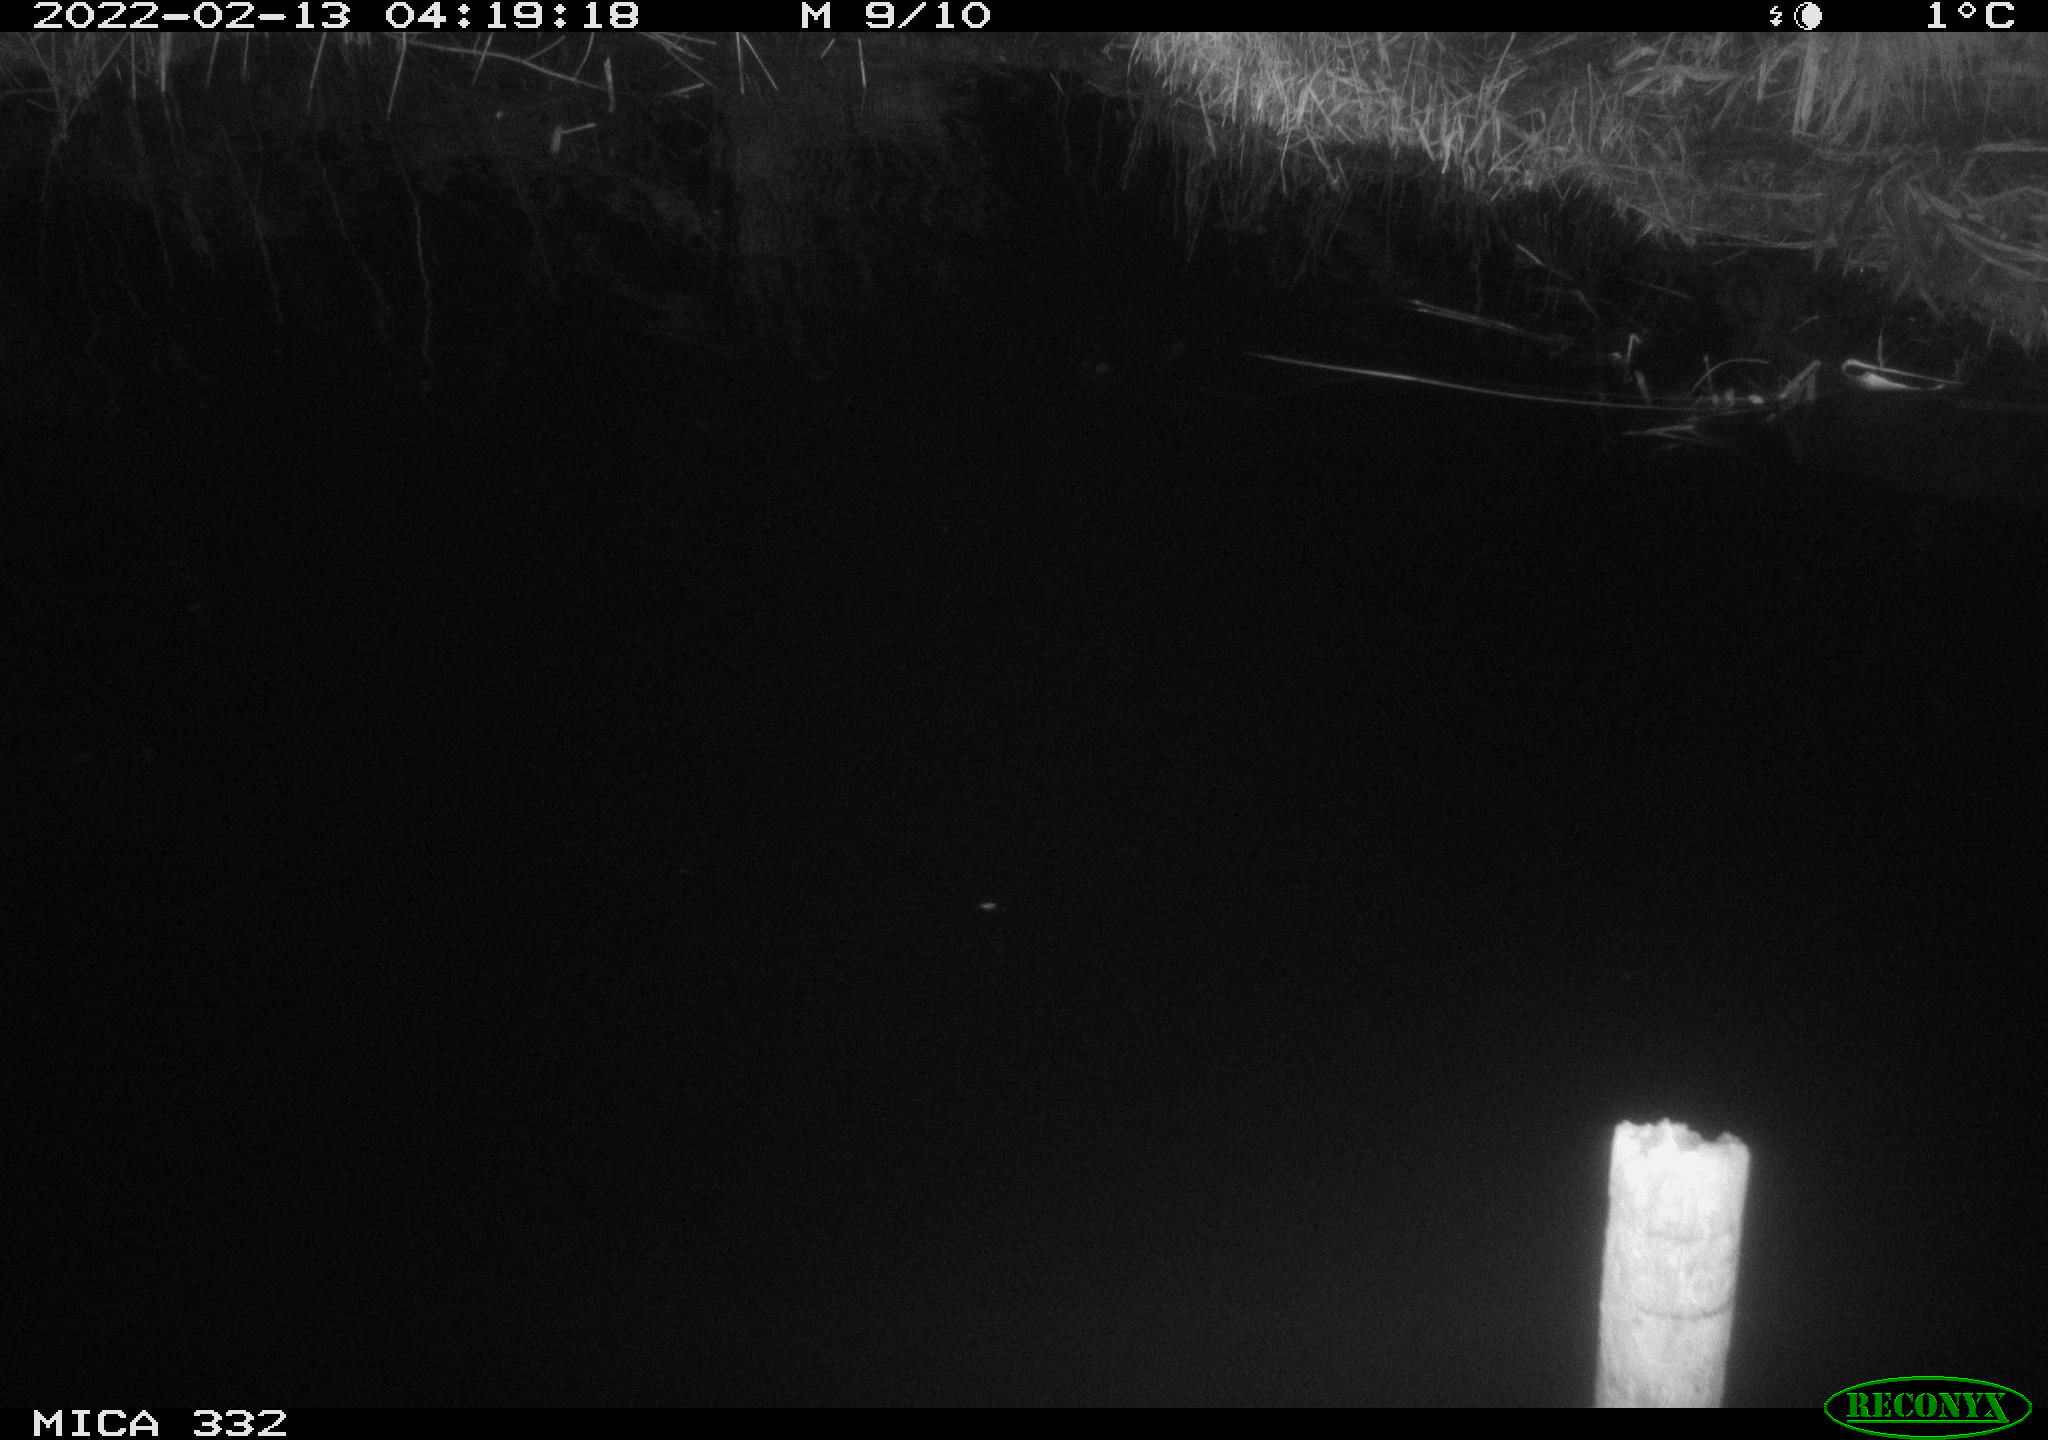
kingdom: Animalia
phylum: Chordata
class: Aves
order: Anseriformes
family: Anatidae
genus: Cygnus
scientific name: Cygnus olor
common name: Mute swan
